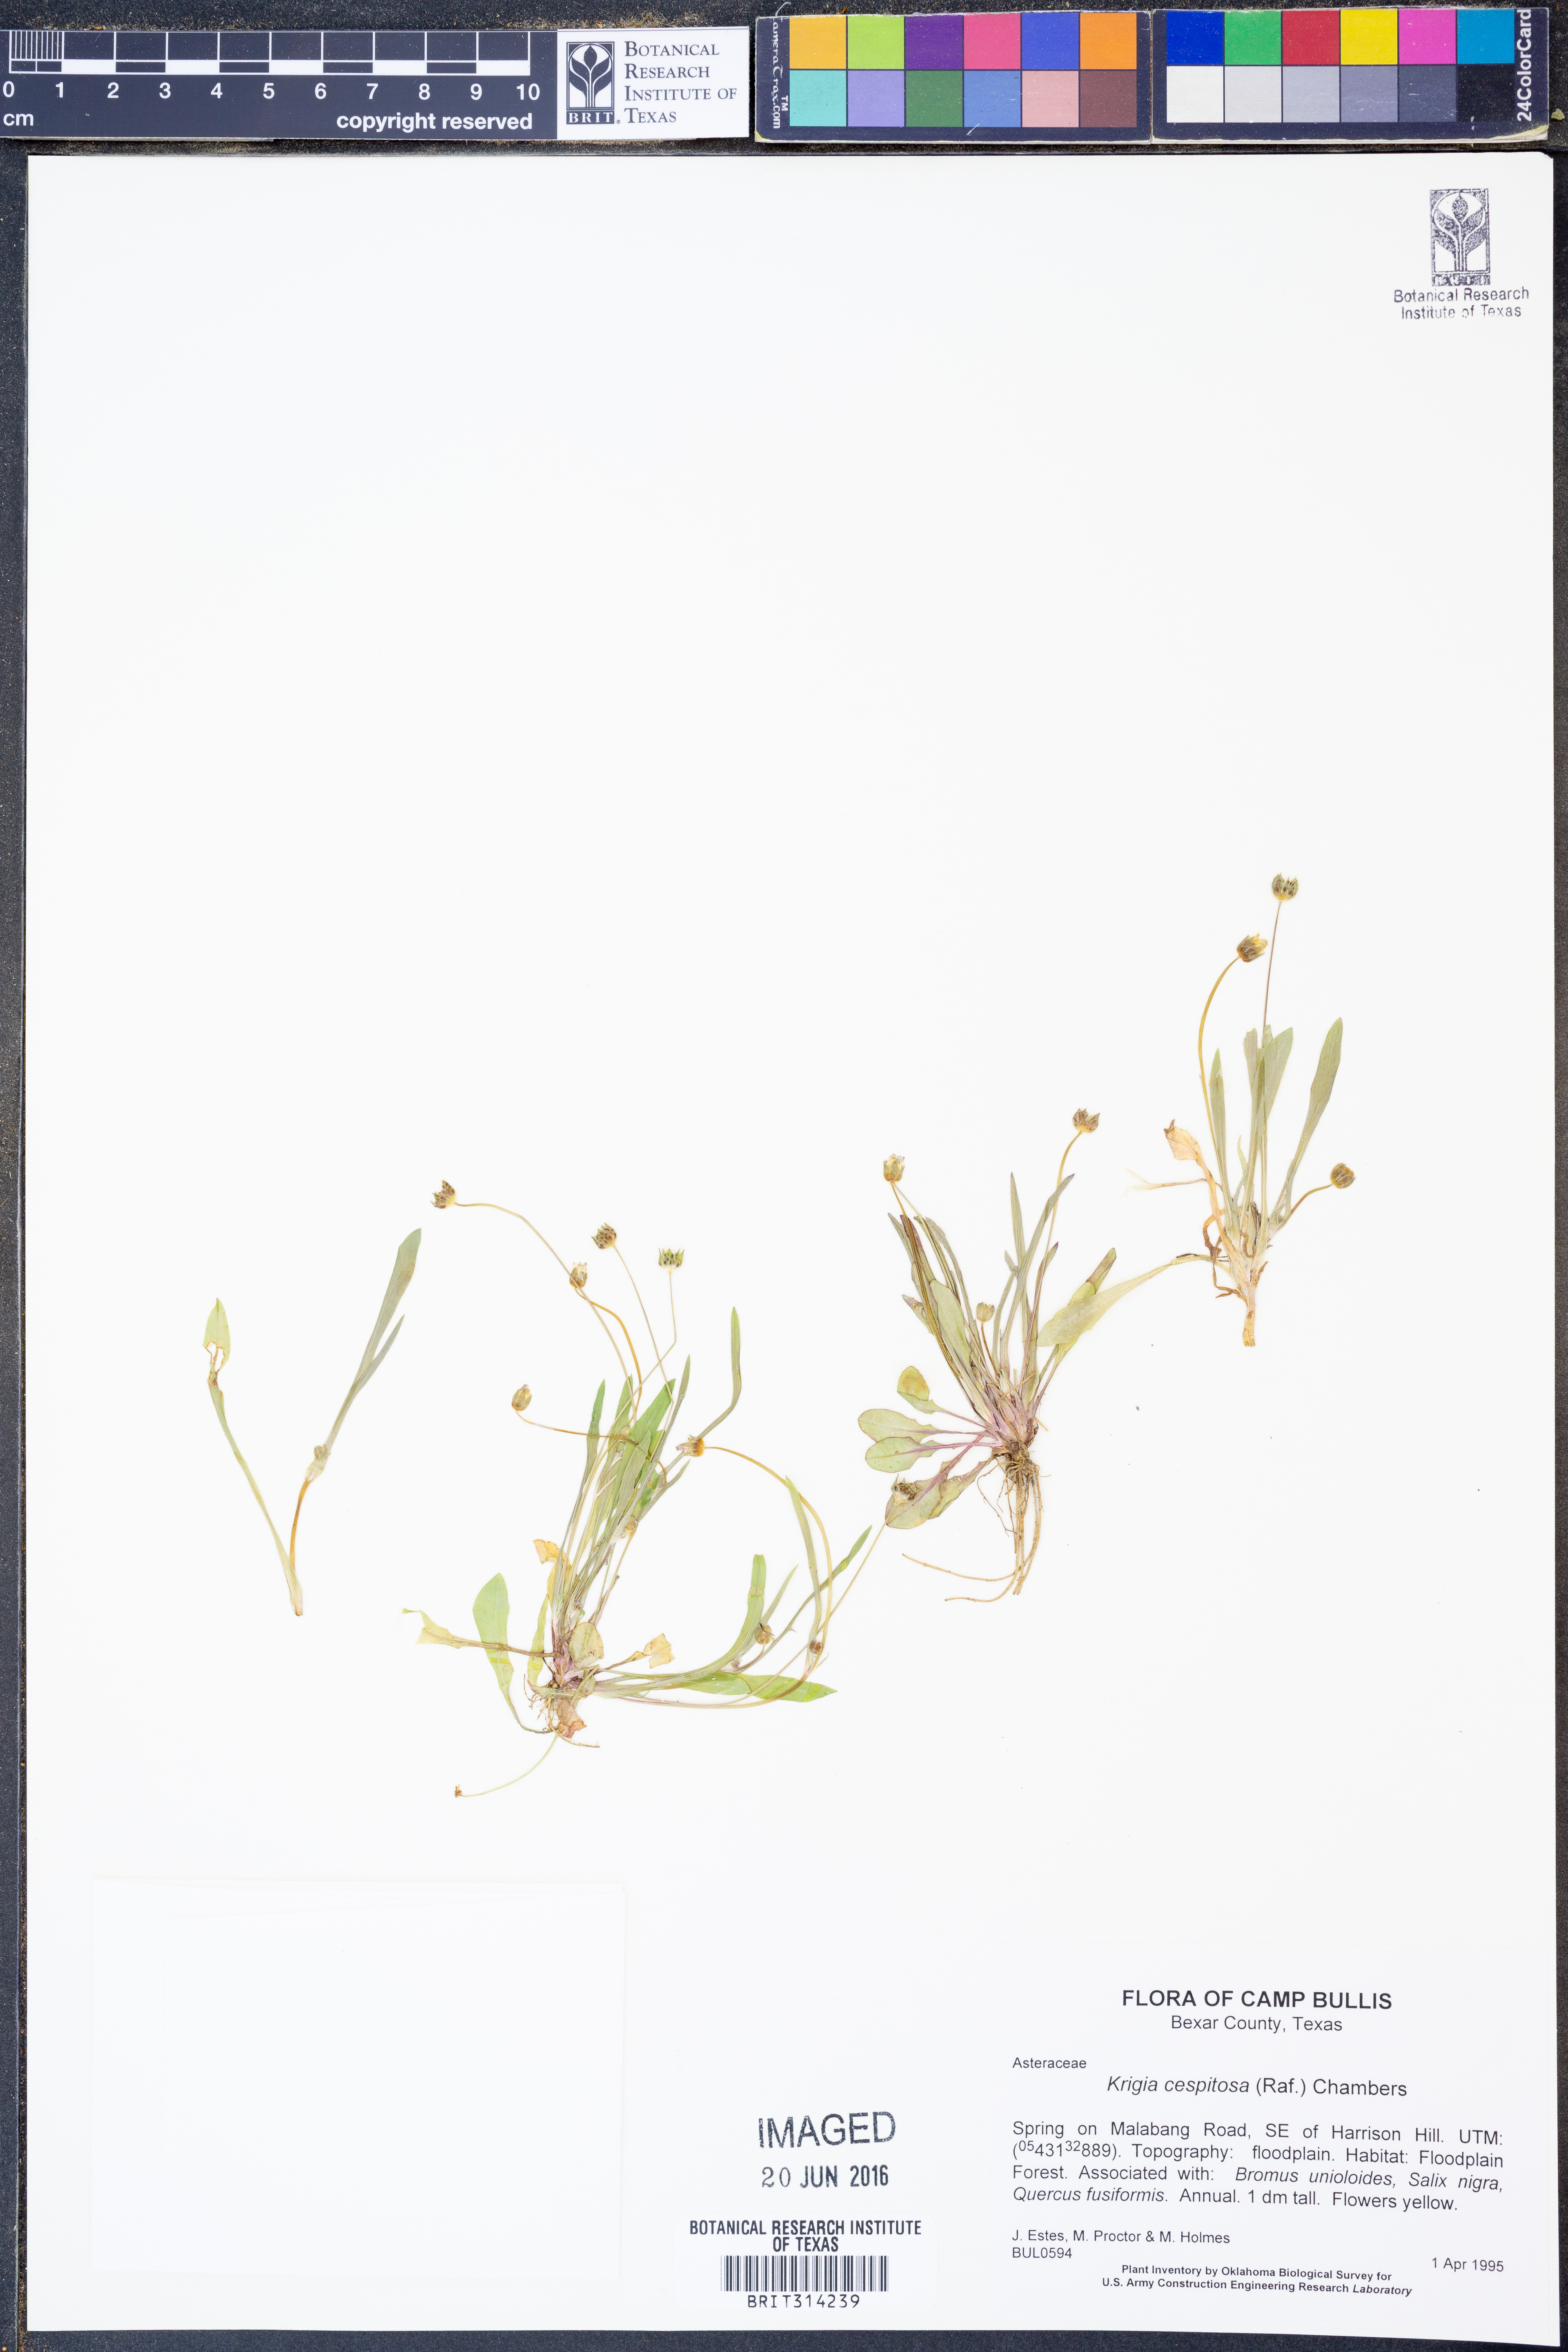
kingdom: Plantae
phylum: Tracheophyta
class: Magnoliopsida
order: Asterales
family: Asteraceae
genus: Krigia
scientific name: Krigia cespitosa
